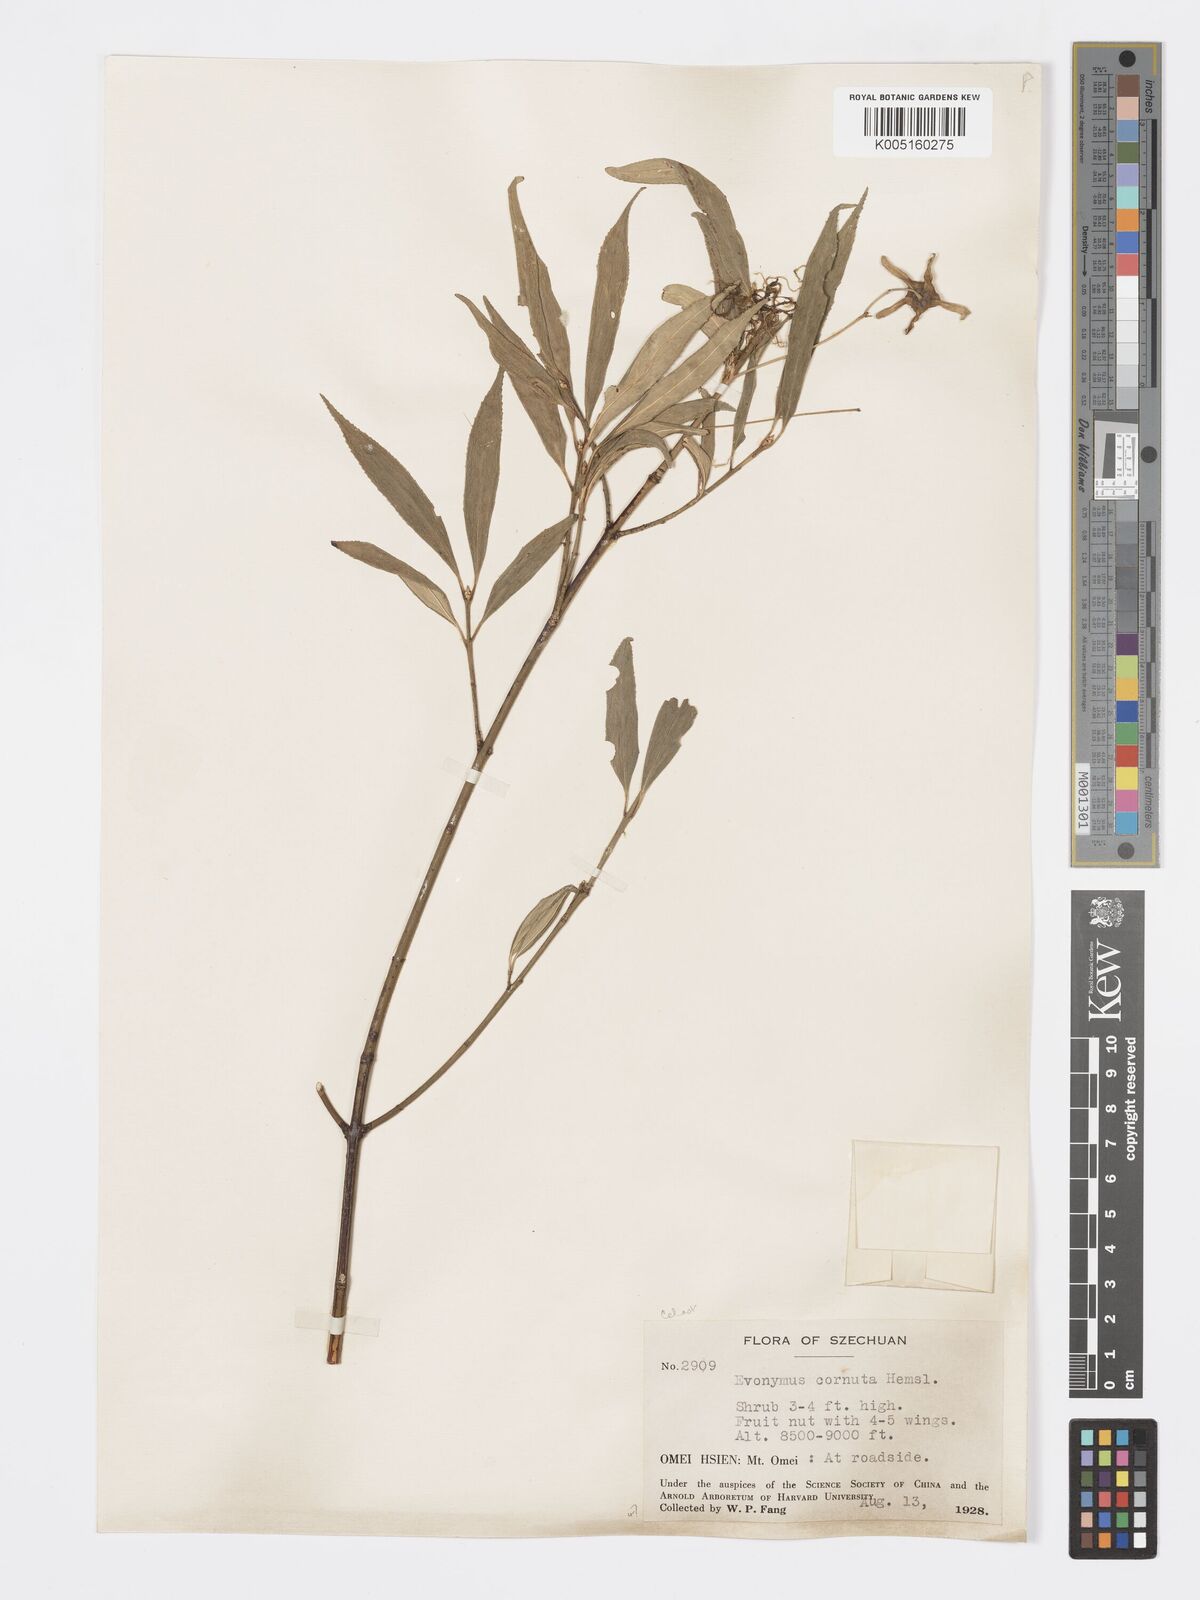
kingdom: Plantae
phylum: Tracheophyta
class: Magnoliopsida
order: Celastrales
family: Celastraceae
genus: Euonymus
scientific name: Euonymus cornutus
